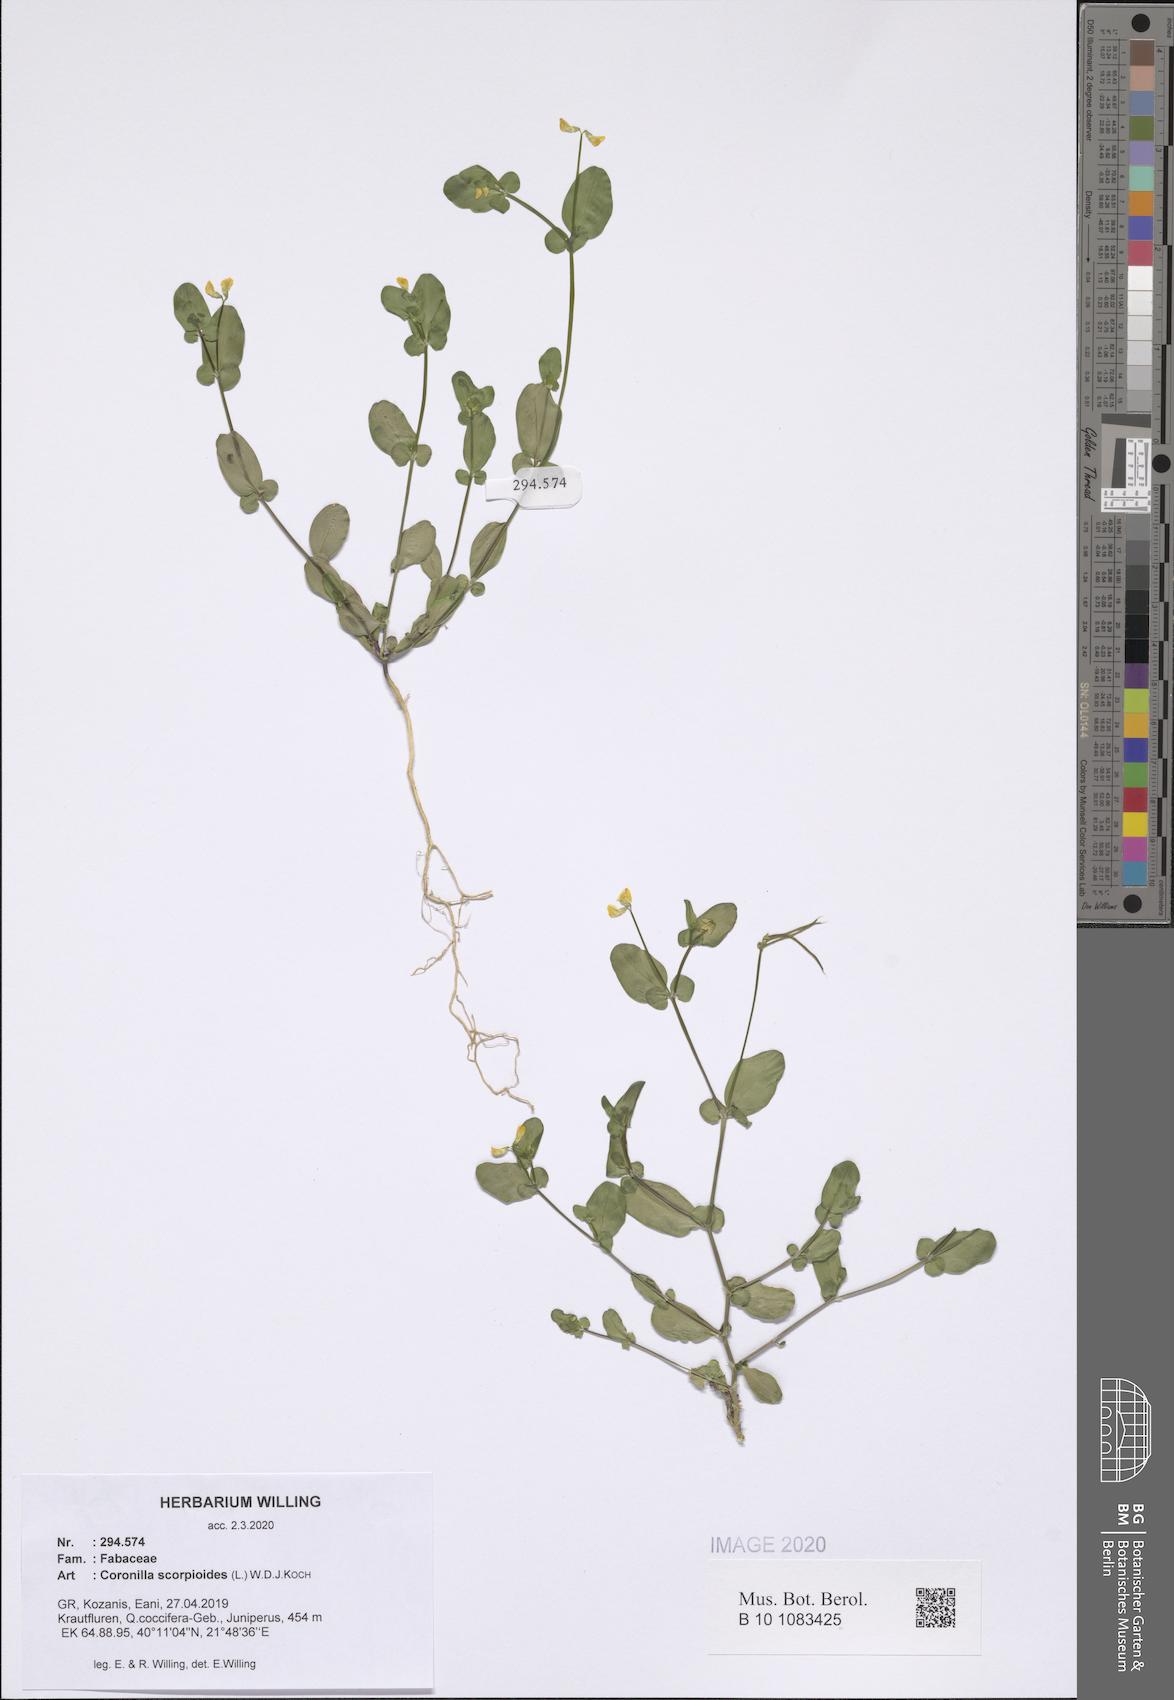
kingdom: Plantae
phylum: Tracheophyta
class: Magnoliopsida
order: Fabales
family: Fabaceae
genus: Coronilla
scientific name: Coronilla scorpioides
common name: Annual scorpion-vetch
